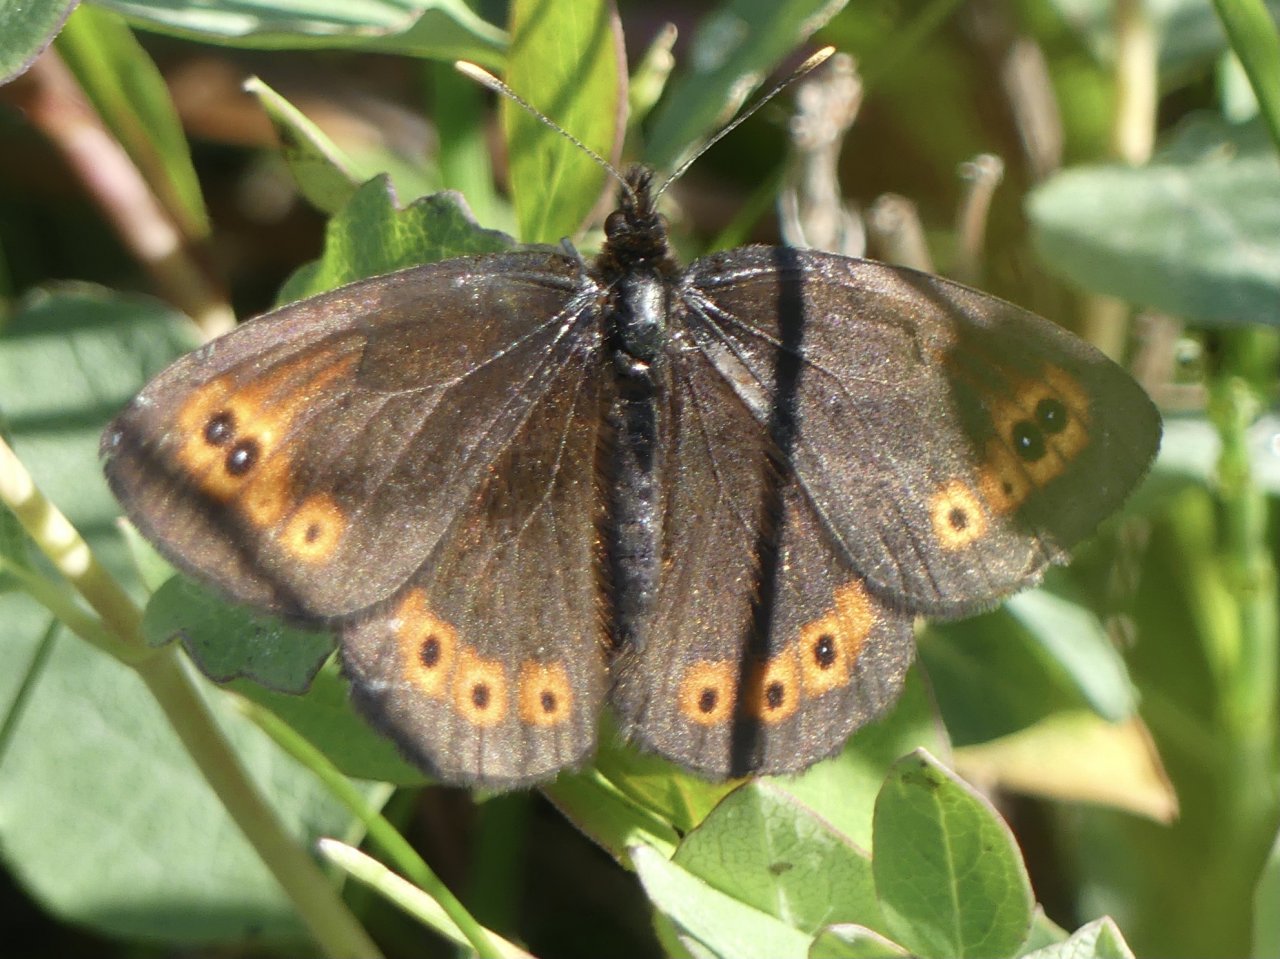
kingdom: Animalia
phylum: Arthropoda
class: Insecta
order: Lepidoptera
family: Nymphalidae
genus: Erebia
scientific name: Erebia epipsodea
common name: Common Alpine
